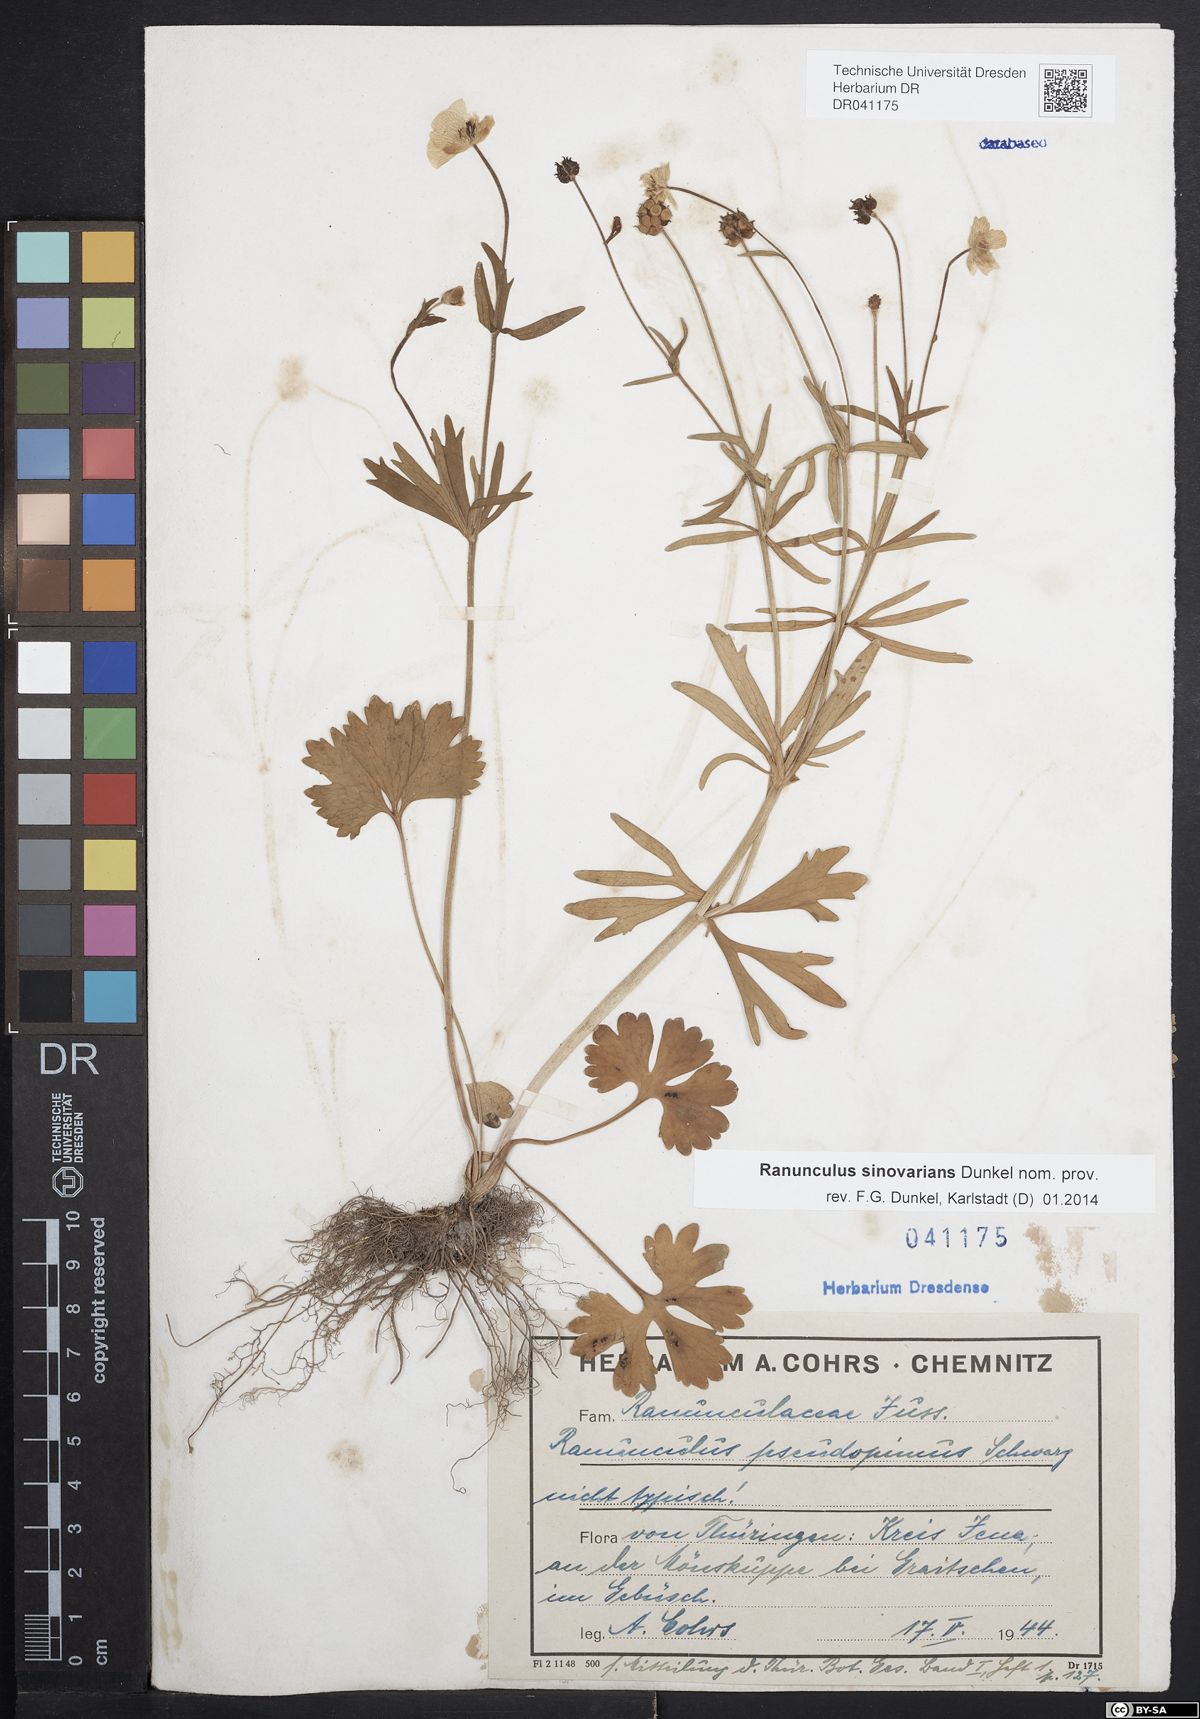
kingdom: Plantae
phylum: Tracheophyta
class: Magnoliopsida
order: Ranunculales
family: Ranunculaceae
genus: Ranunculus
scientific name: Ranunculus auricomus
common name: Goldilocks buttercup
